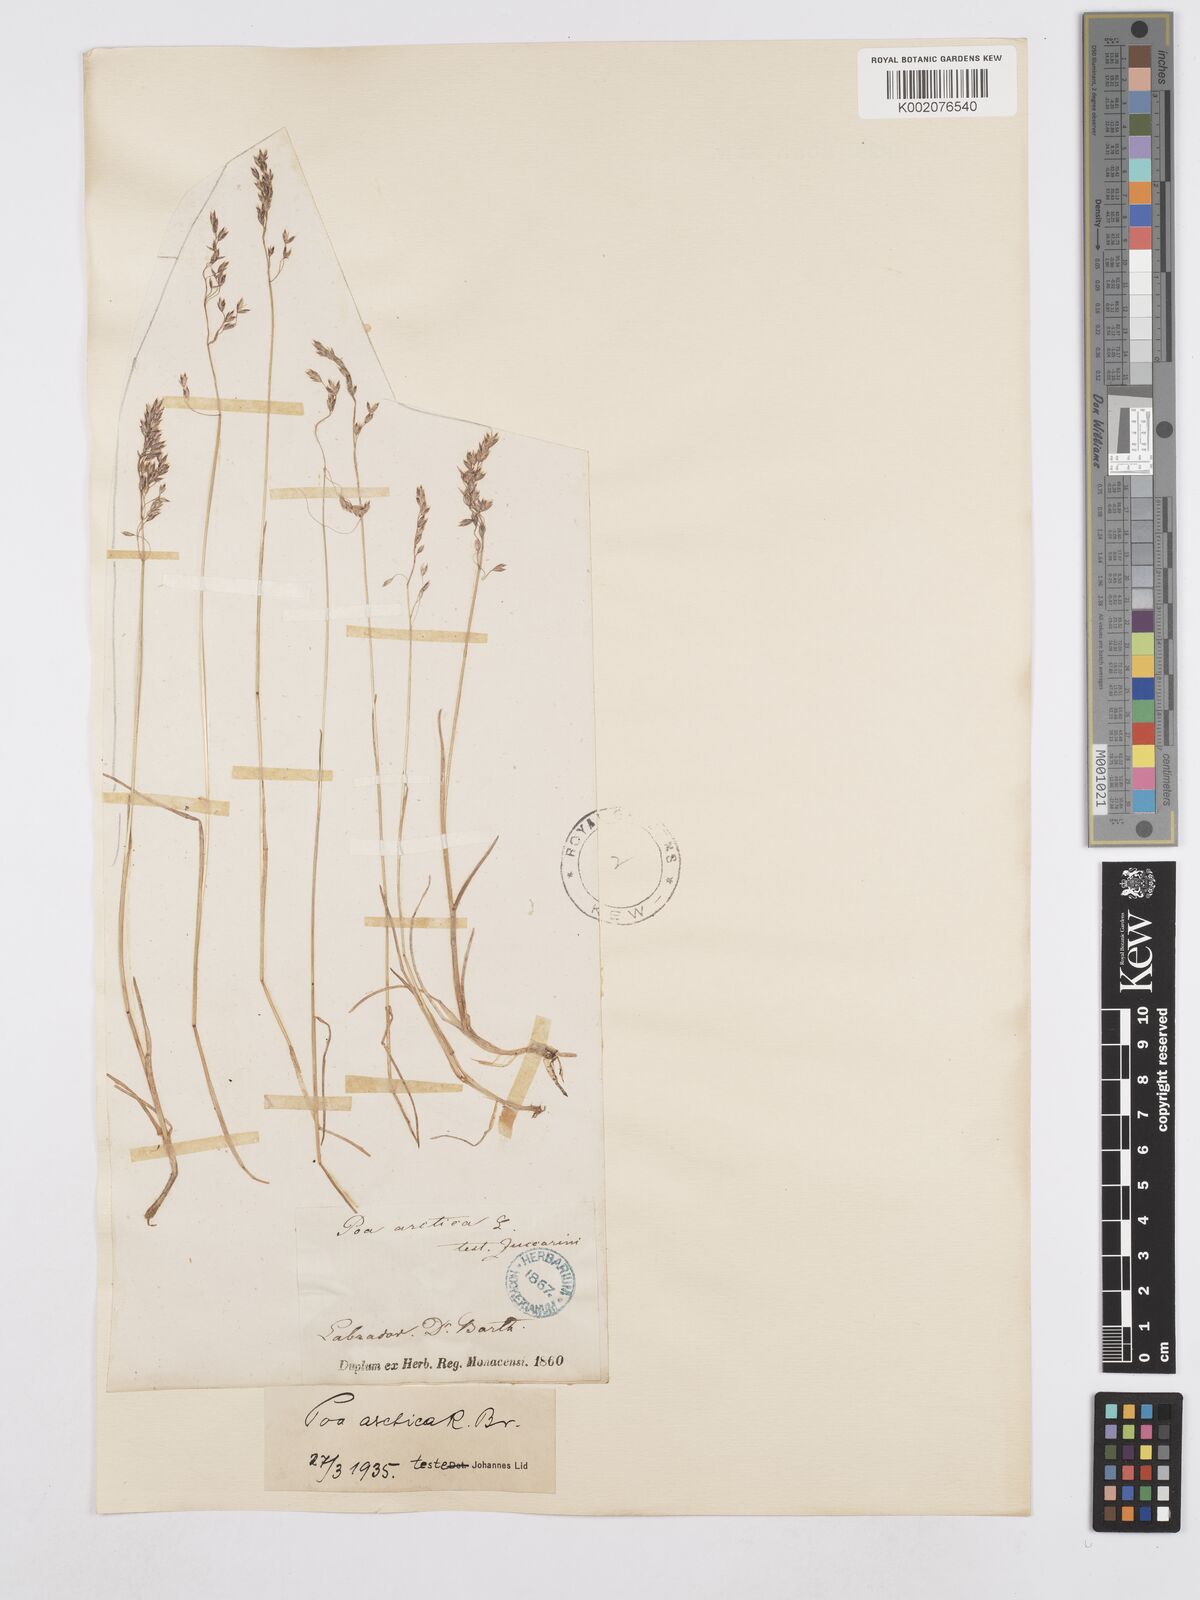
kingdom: Plantae
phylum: Tracheophyta
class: Liliopsida
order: Poales
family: Poaceae
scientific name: Poaceae
